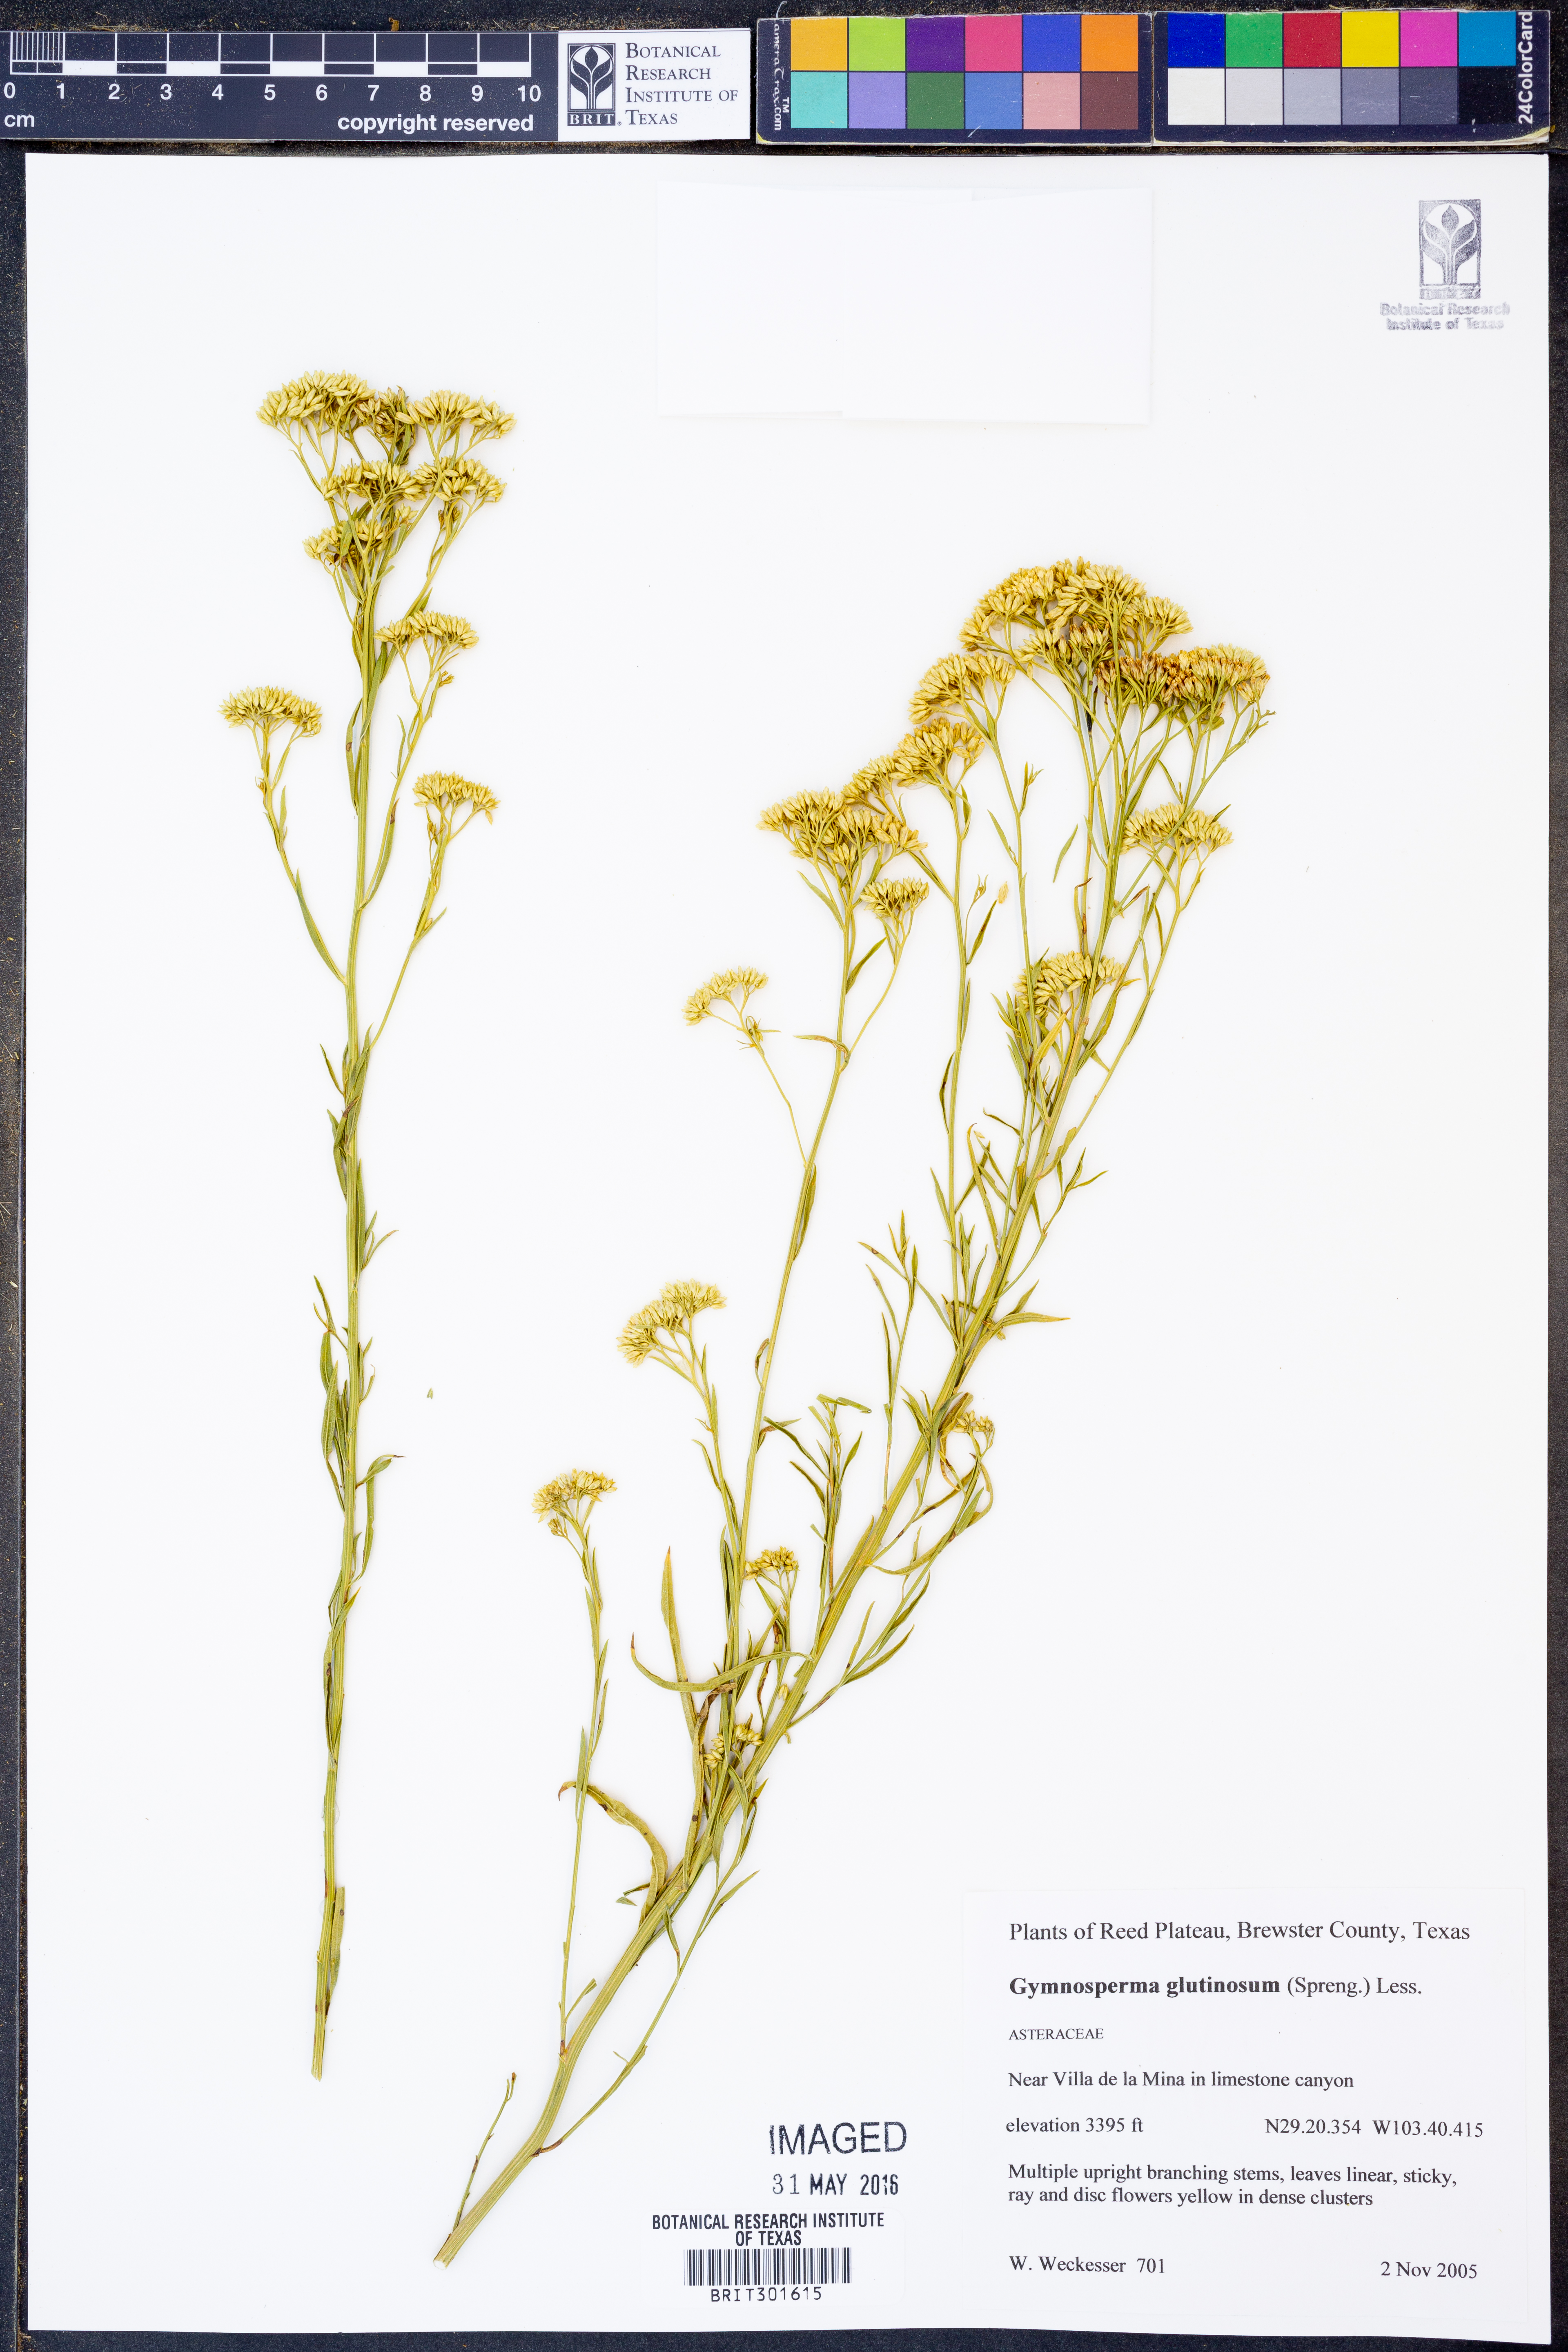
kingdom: Plantae
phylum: Tracheophyta
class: Magnoliopsida
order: Asterales
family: Asteraceae
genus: Gymnosperma
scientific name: Gymnosperma glutinosum
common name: Gumhead
